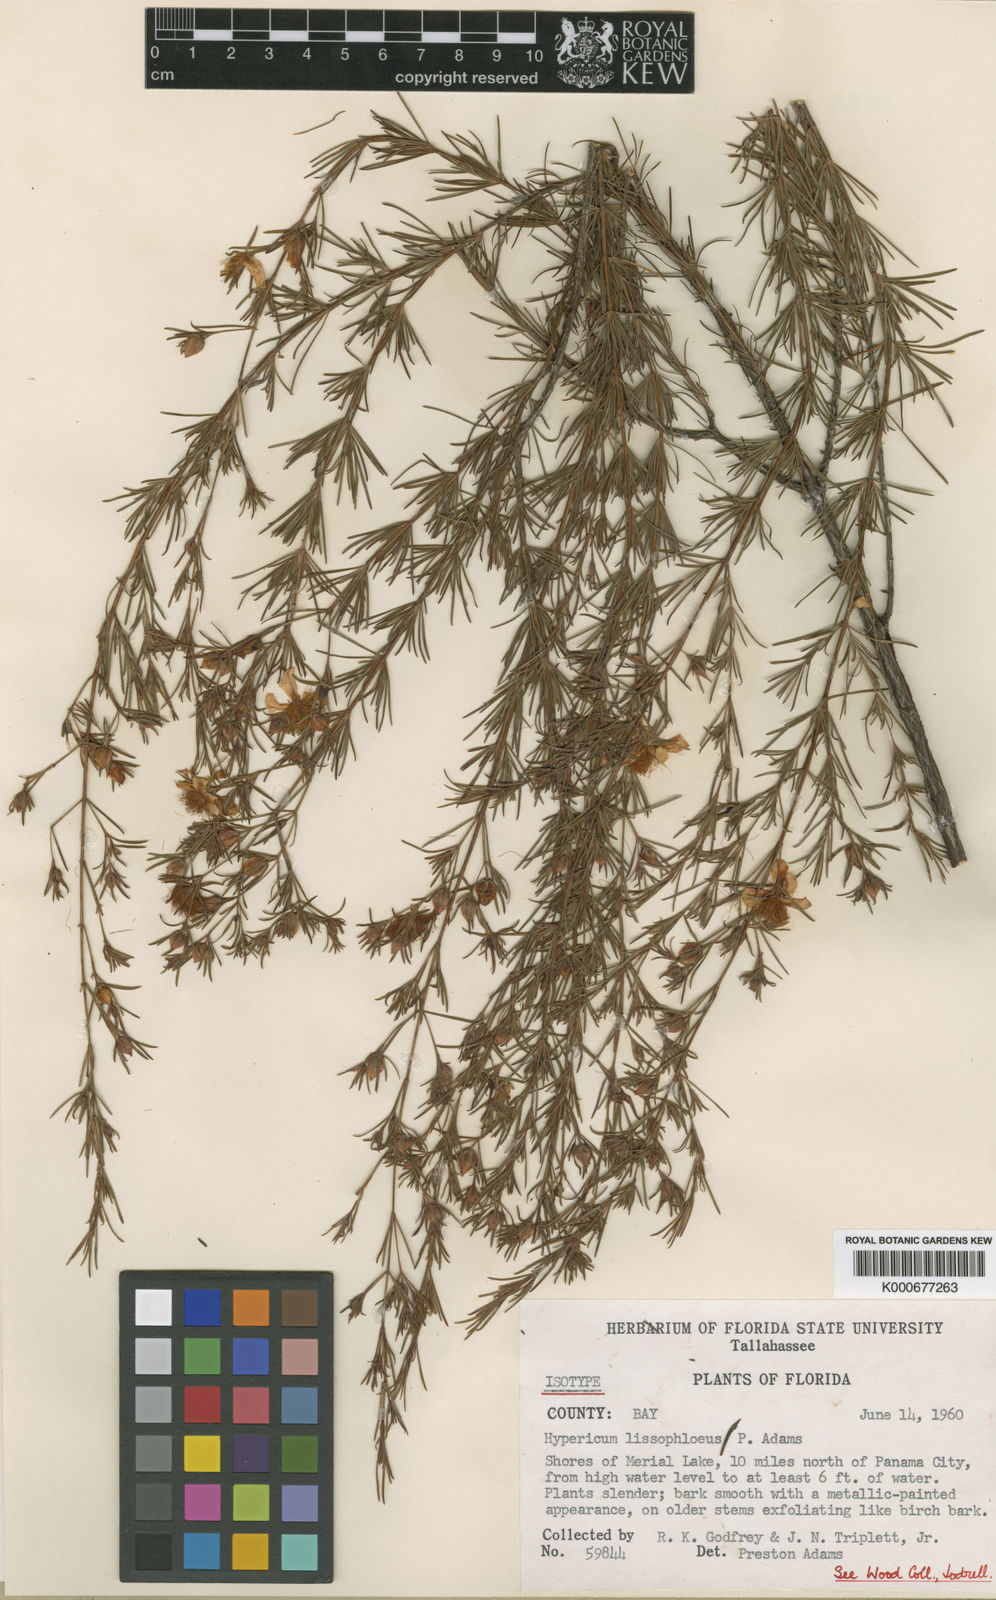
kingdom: Plantae
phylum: Tracheophyta
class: Magnoliopsida
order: Malpighiales
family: Hypericaceae
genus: Hypericum
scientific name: Hypericum lissophloeus
